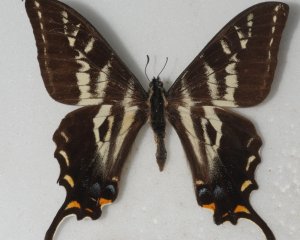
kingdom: Animalia
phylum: Arthropoda
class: Insecta
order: Lepidoptera
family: Papilionidae
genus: Pterourus
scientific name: Pterourus eurymedon
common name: Pale Swallowtail
